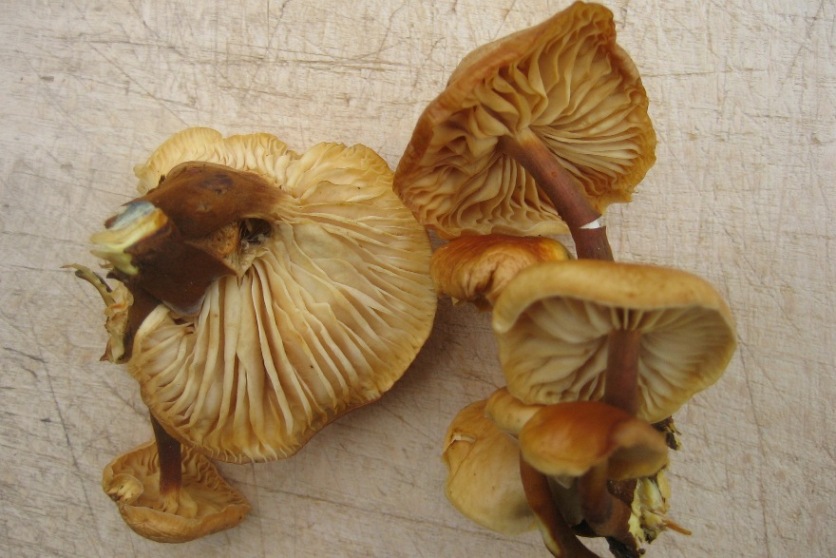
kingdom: Fungi
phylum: Basidiomycota
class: Agaricomycetes
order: Agaricales
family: Physalacriaceae
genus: Flammulina
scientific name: Flammulina elastica
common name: pile-fløjlsfod
